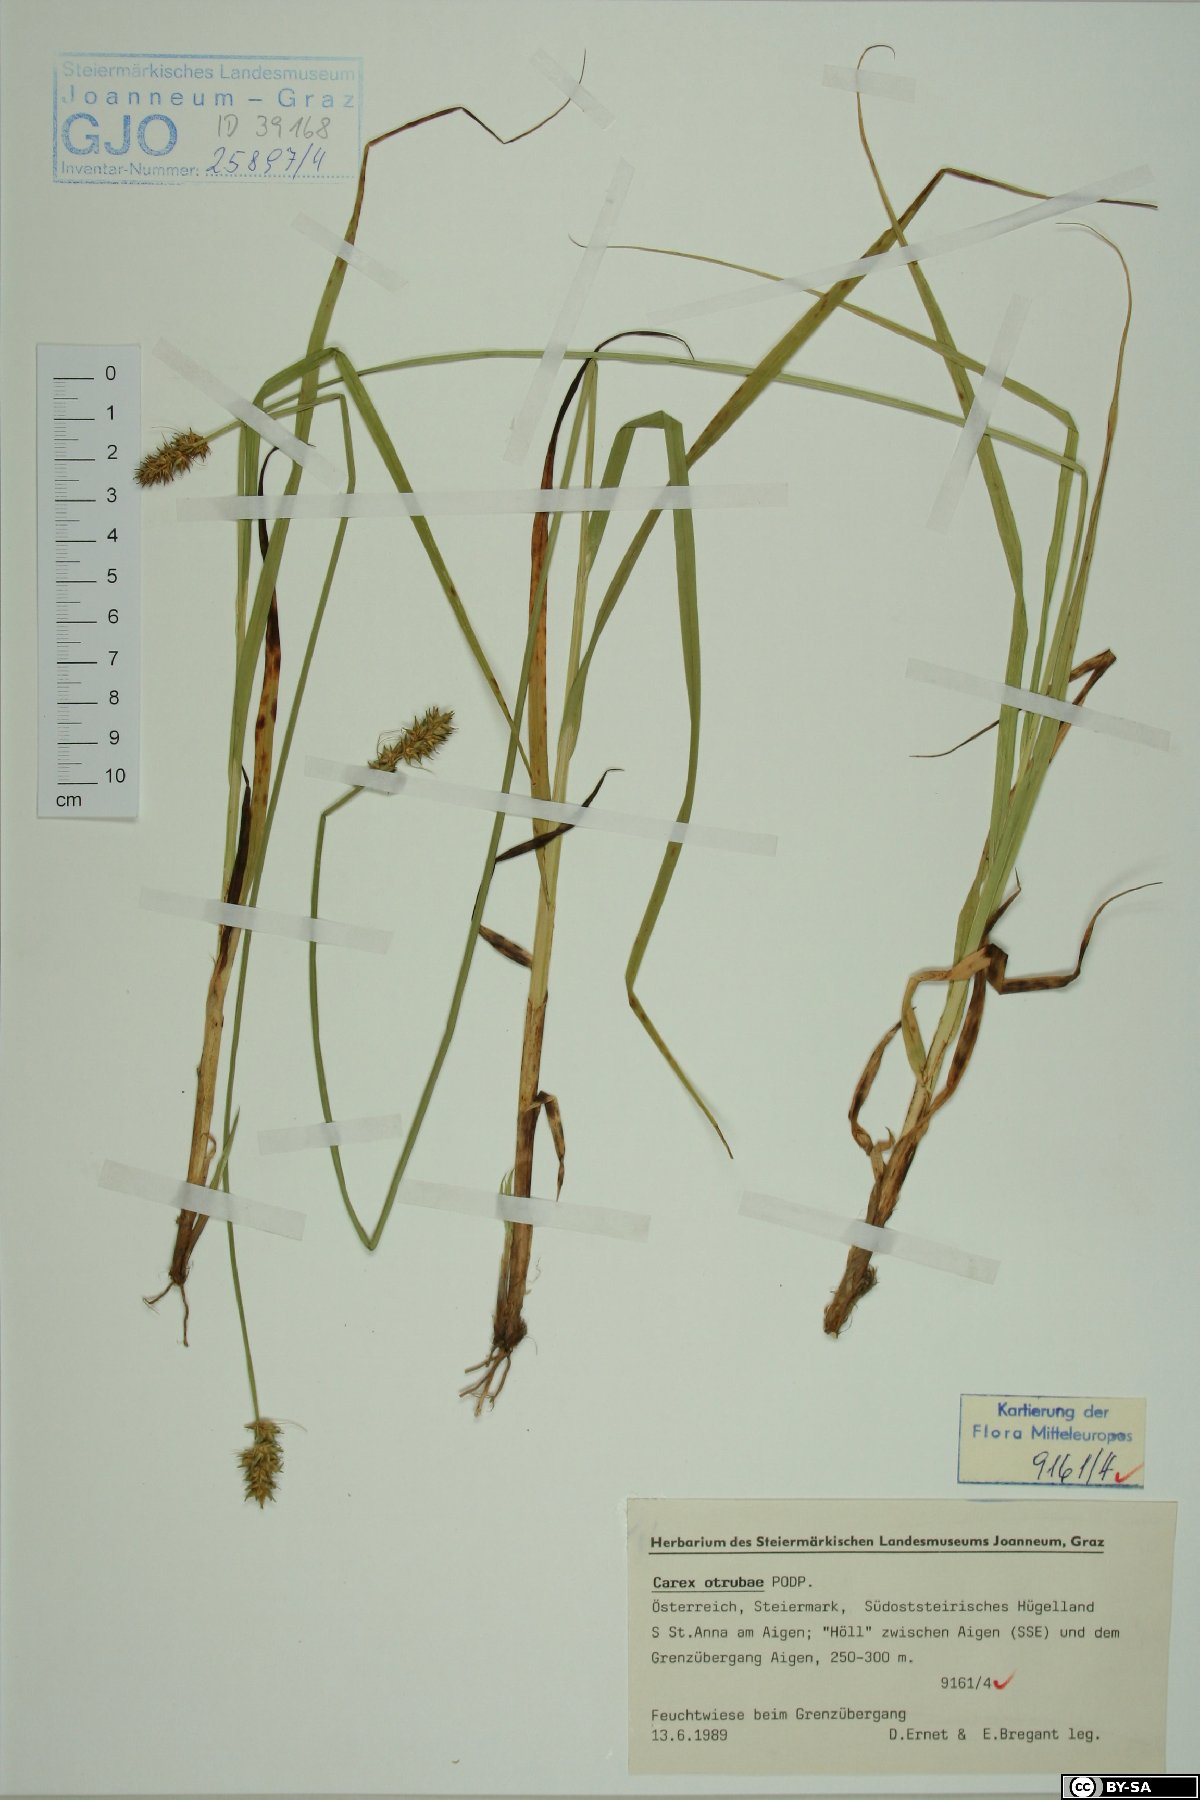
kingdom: Plantae
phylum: Tracheophyta
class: Liliopsida
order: Poales
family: Cyperaceae
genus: Carex
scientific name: Carex otrubae
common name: False fox-sedge
